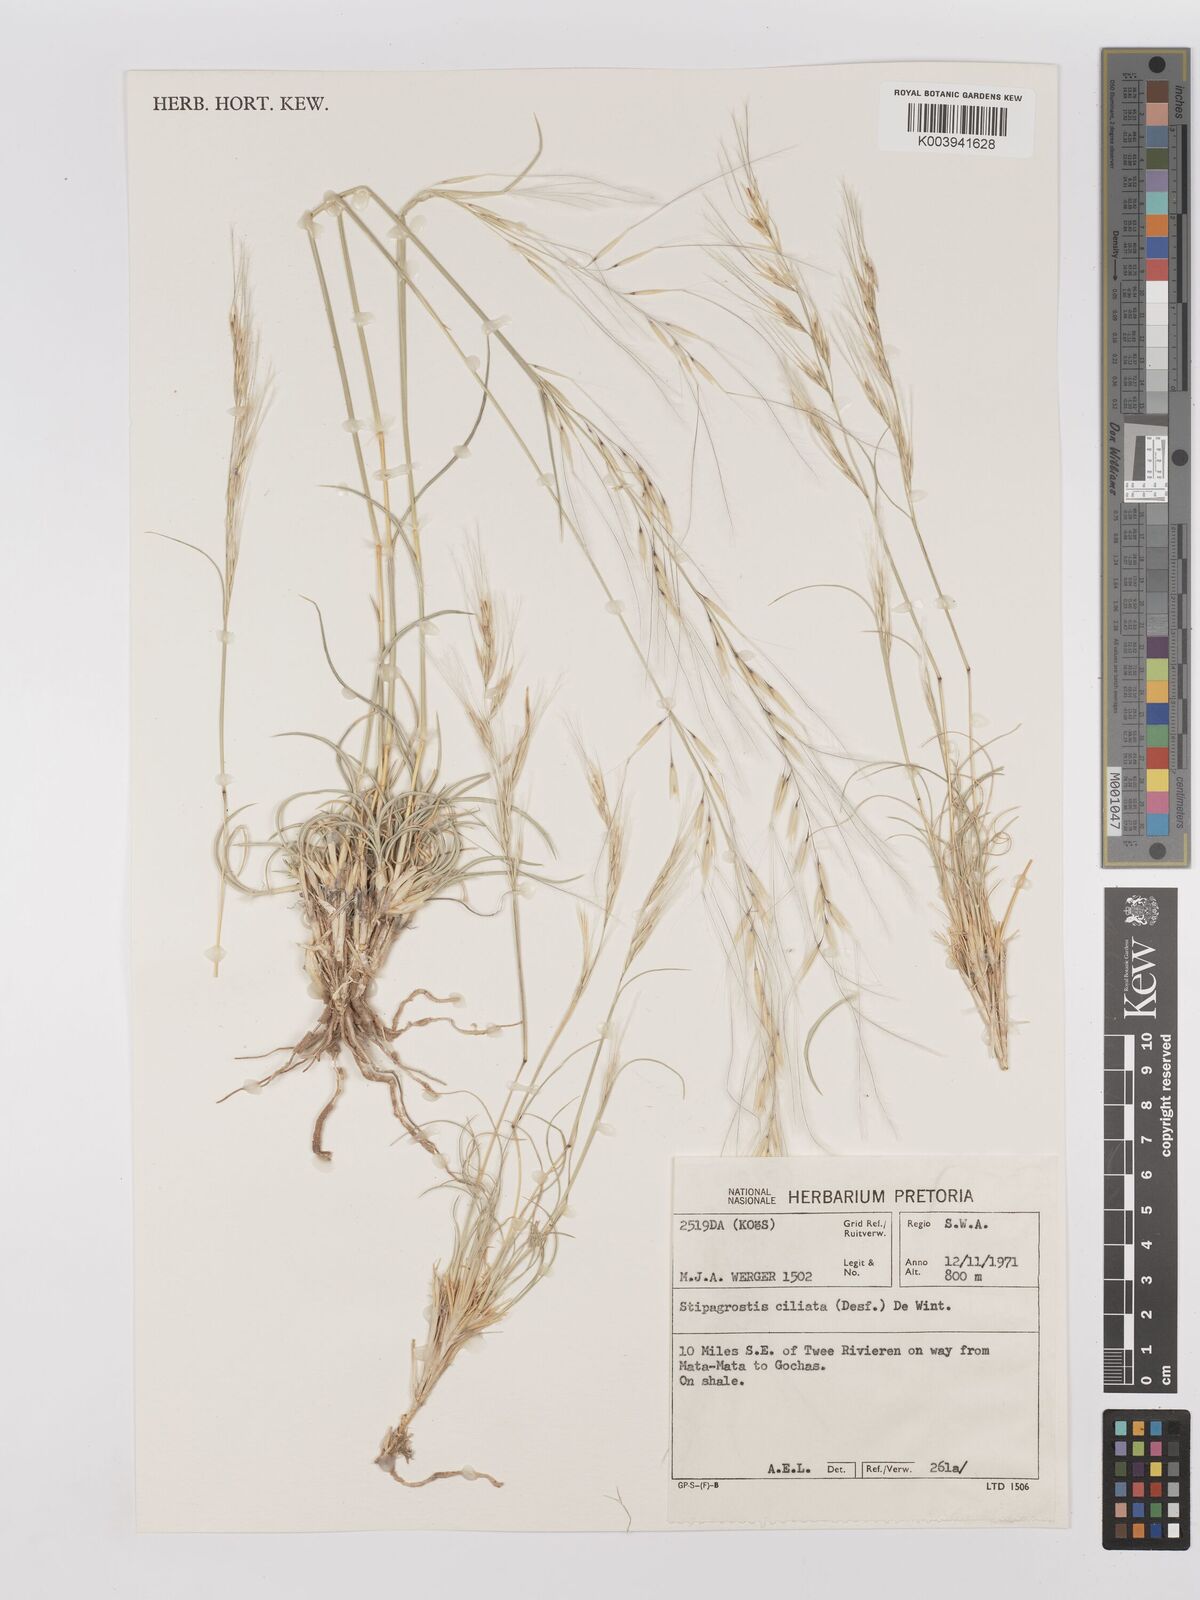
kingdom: Plantae
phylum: Tracheophyta
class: Liliopsida
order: Poales
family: Poaceae
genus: Stipagrostis
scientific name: Stipagrostis ciliata
